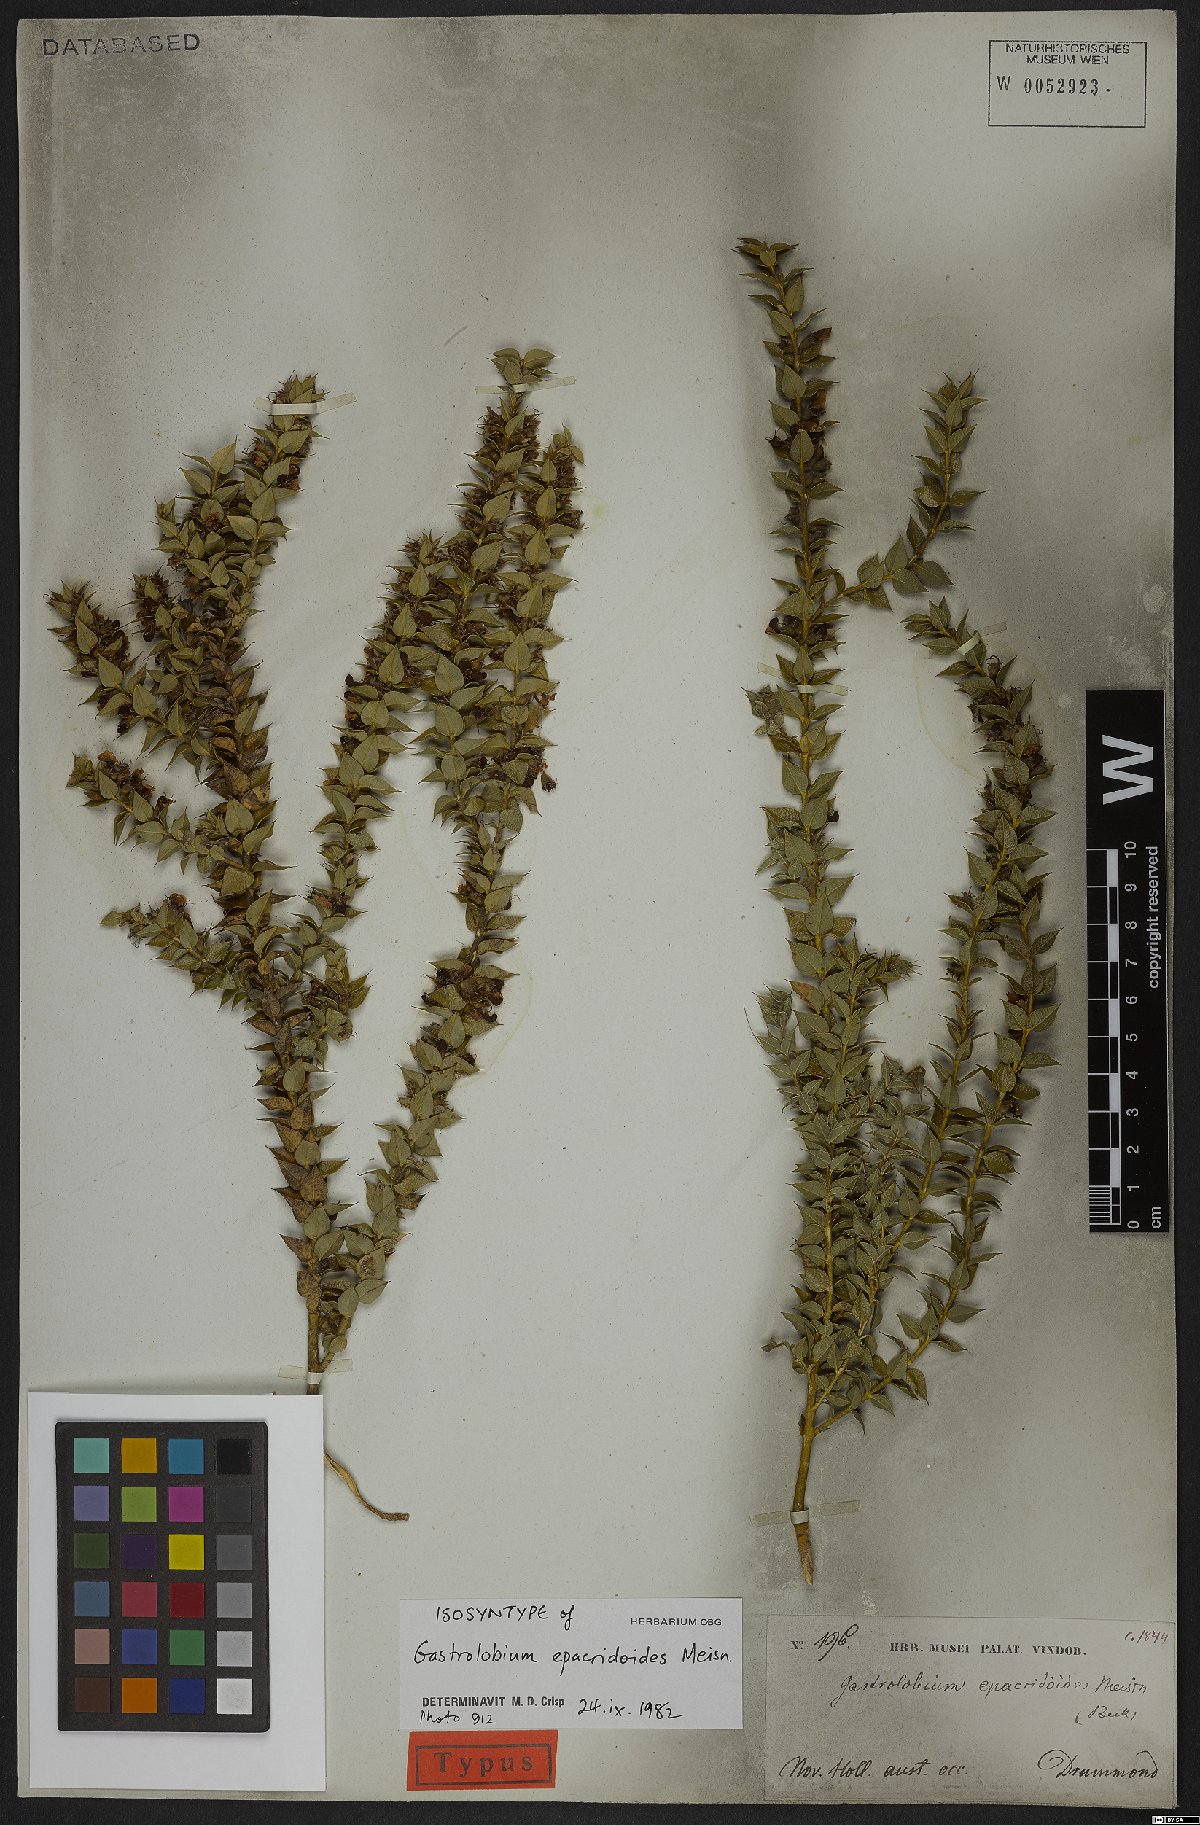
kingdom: Plantae
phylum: Tracheophyta
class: Magnoliopsida
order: Fabales
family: Fabaceae
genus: Gastrolobium
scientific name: Gastrolobium Nemcia epacridoides
